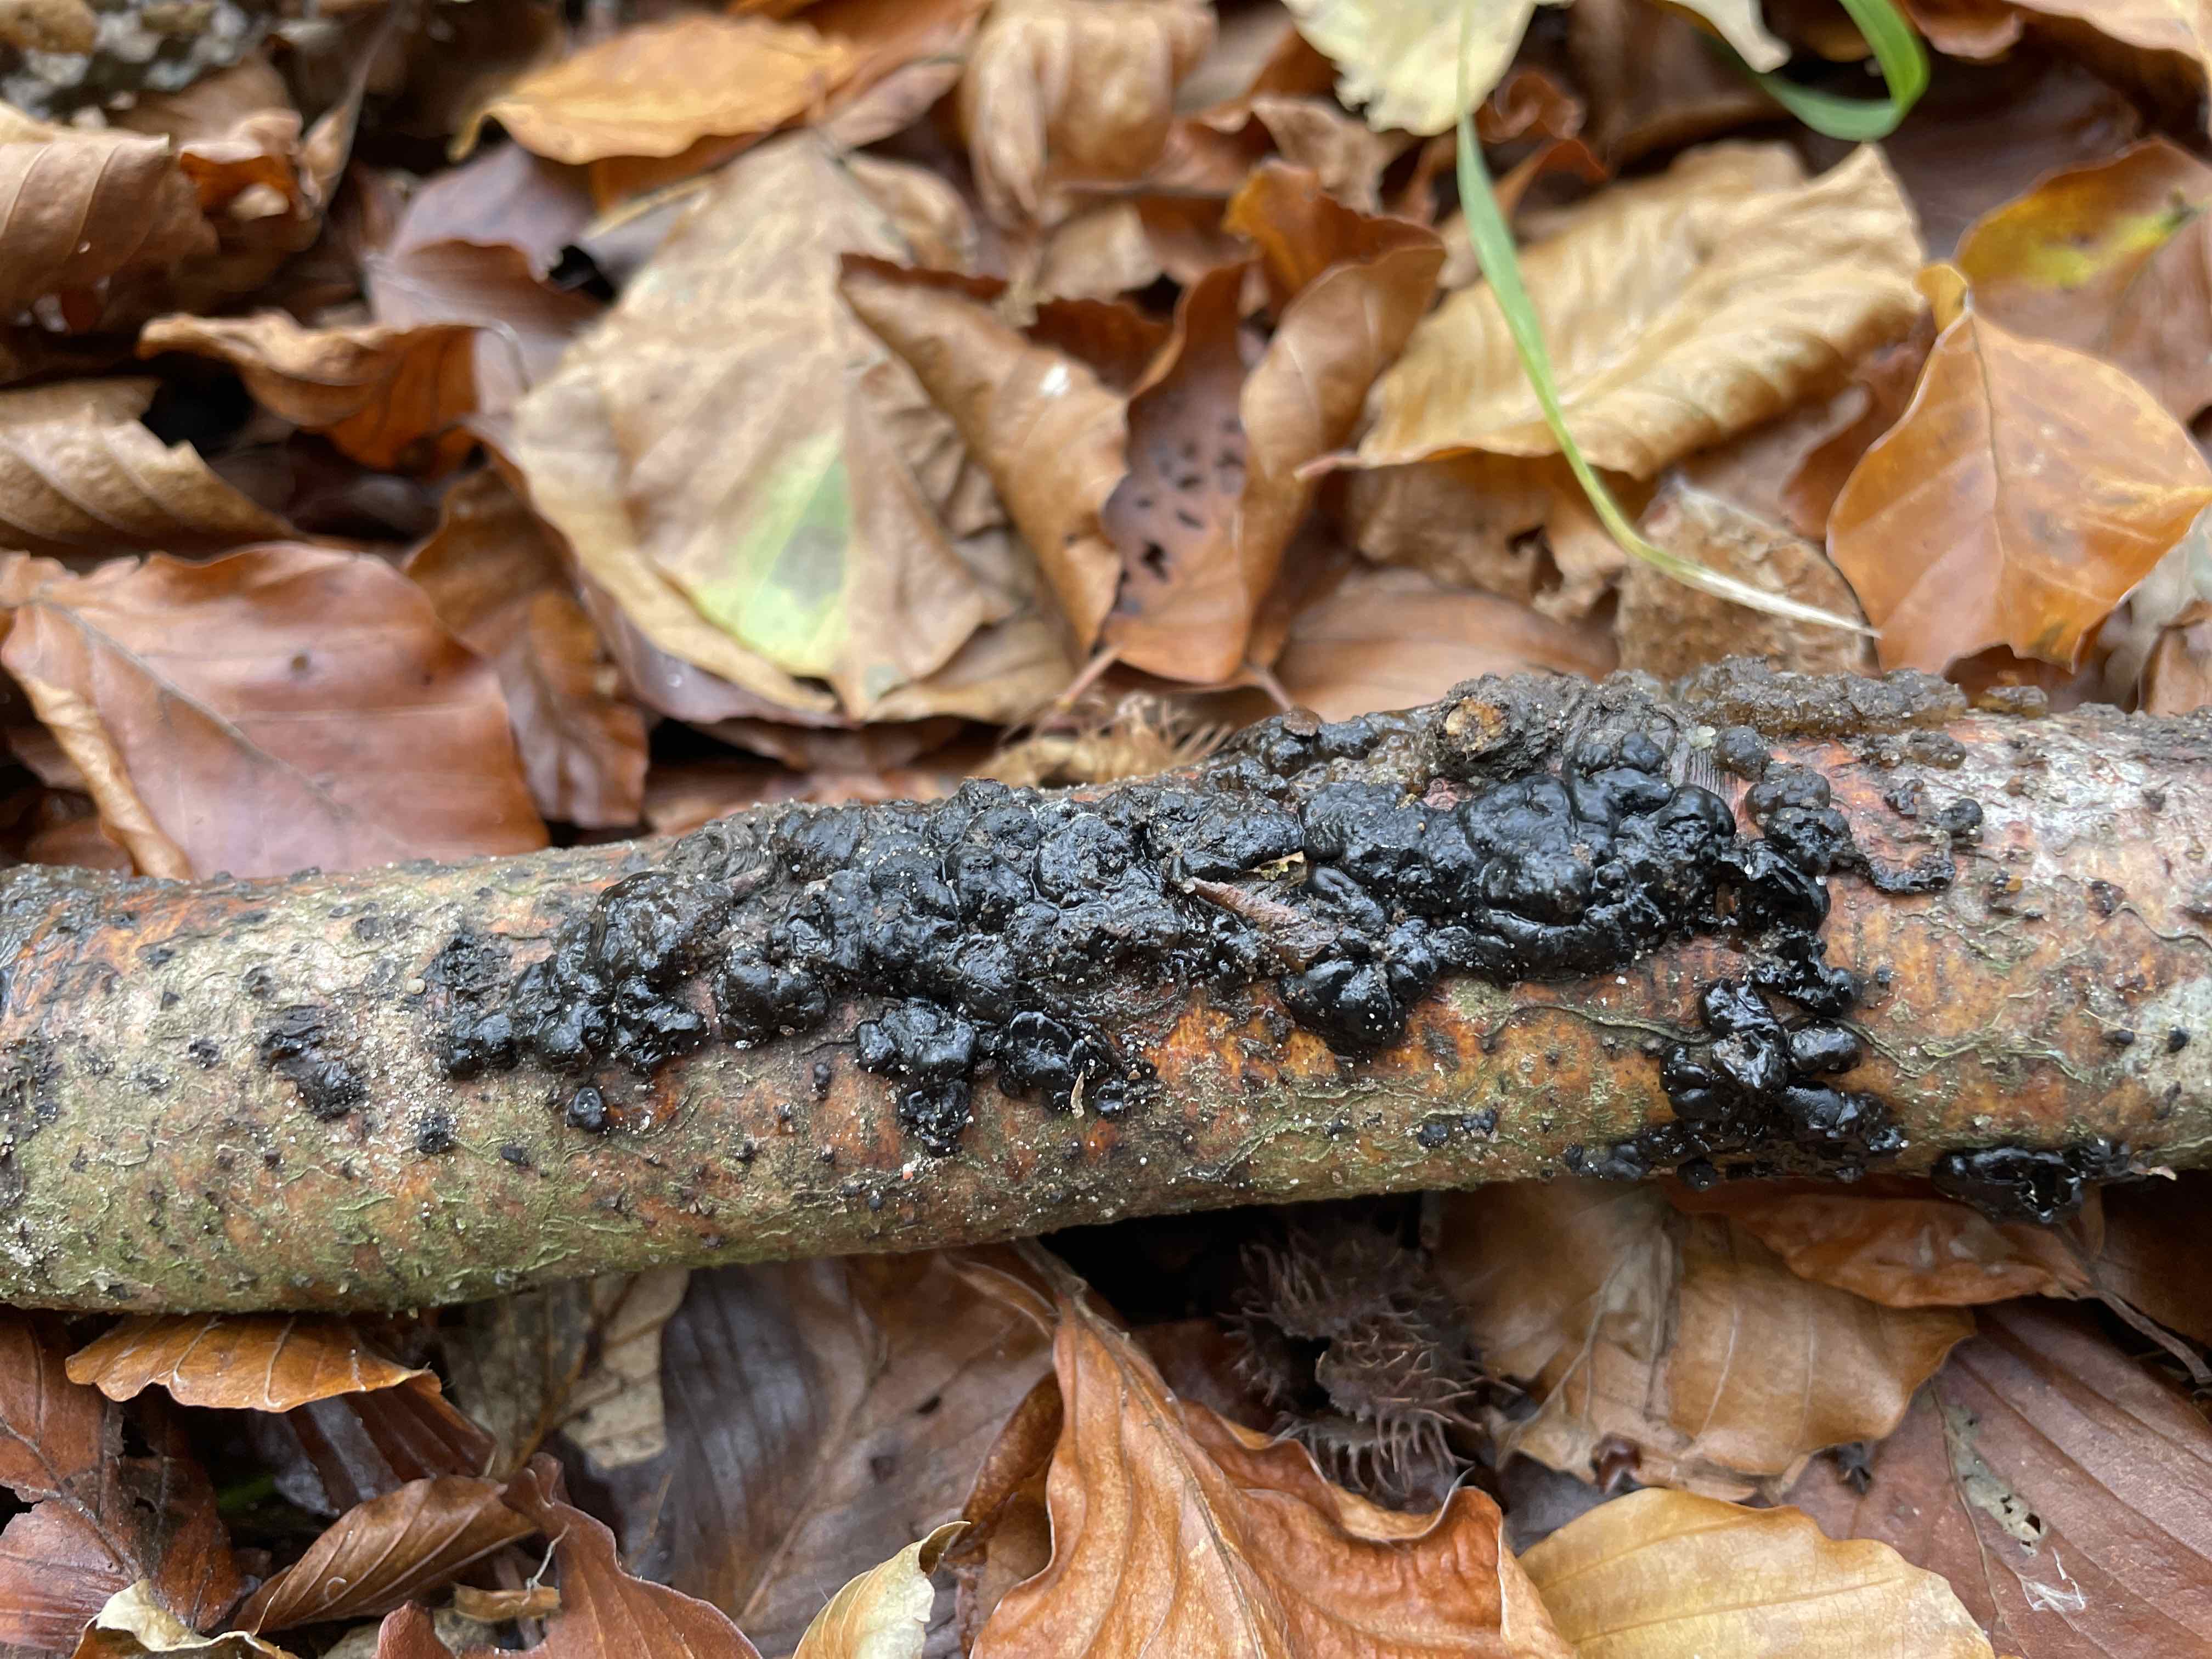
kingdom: Fungi
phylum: Basidiomycota
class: Agaricomycetes
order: Auriculariales
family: Auriculariaceae
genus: Exidia
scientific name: Exidia nigricans
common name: almindelig bævretop
